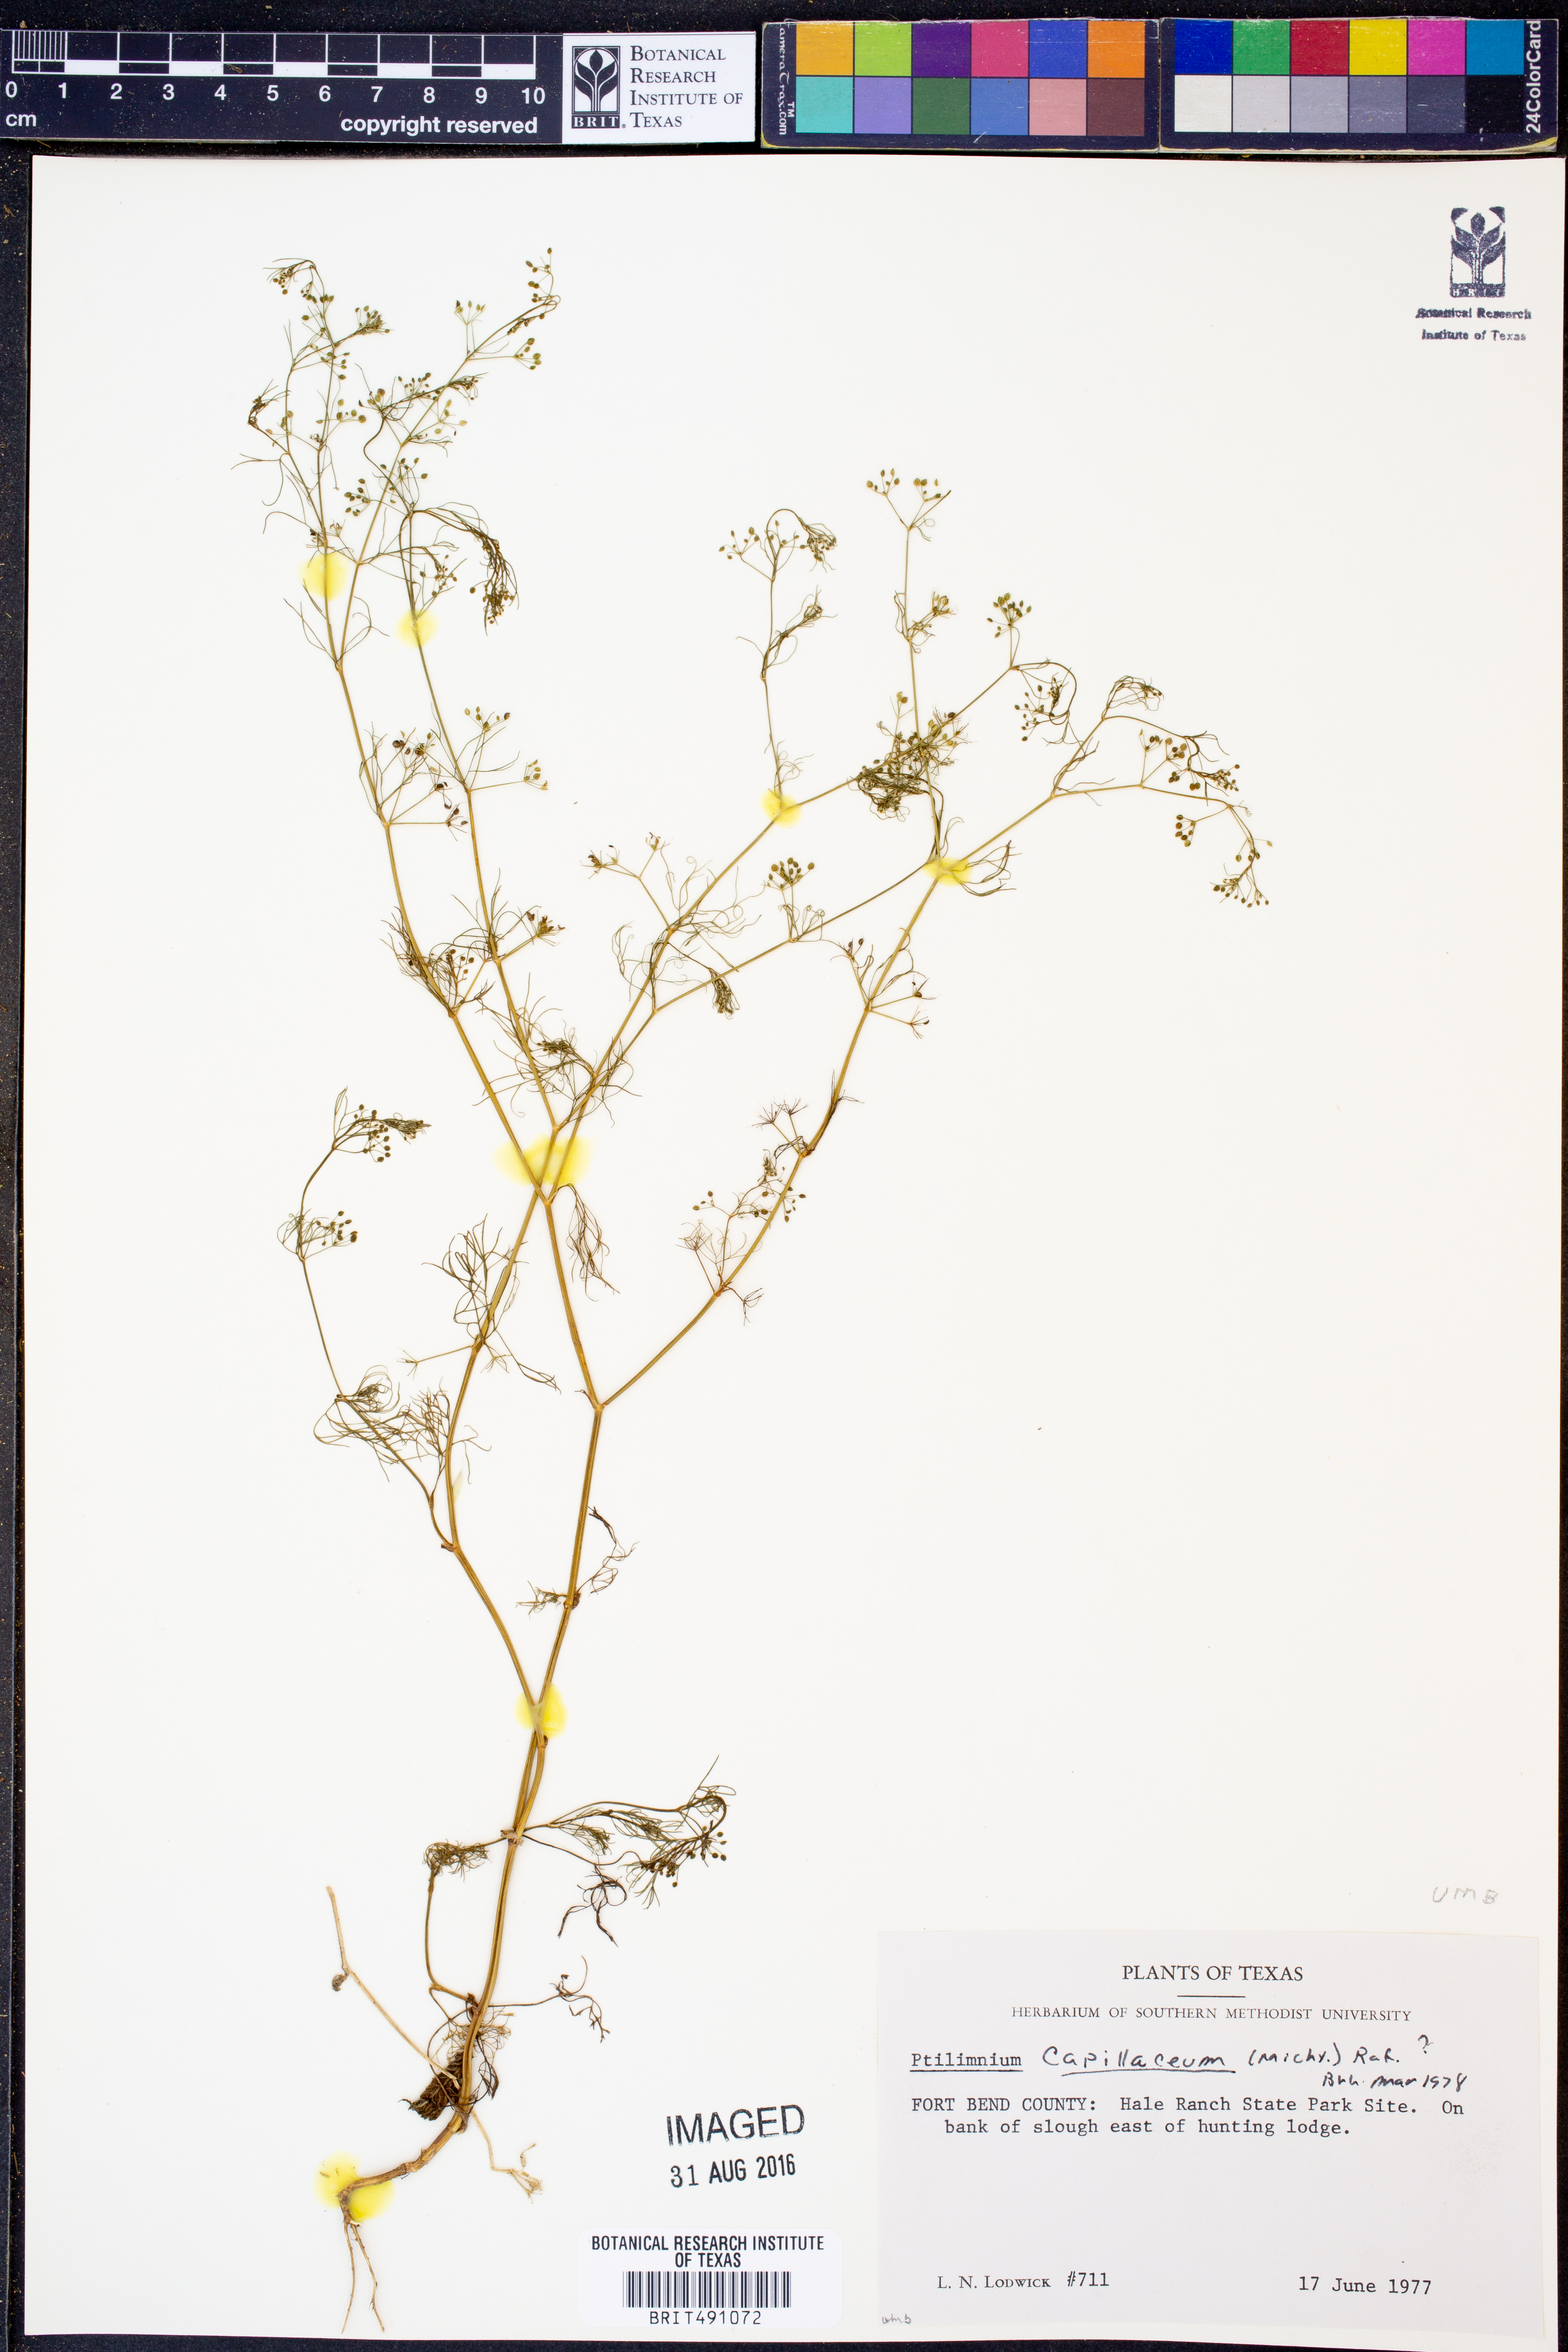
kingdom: Plantae
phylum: Tracheophyta
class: Magnoliopsida
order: Apiales
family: Apiaceae
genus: Ptilimnium
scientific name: Ptilimnium capillaceum
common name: Herbwilliam
